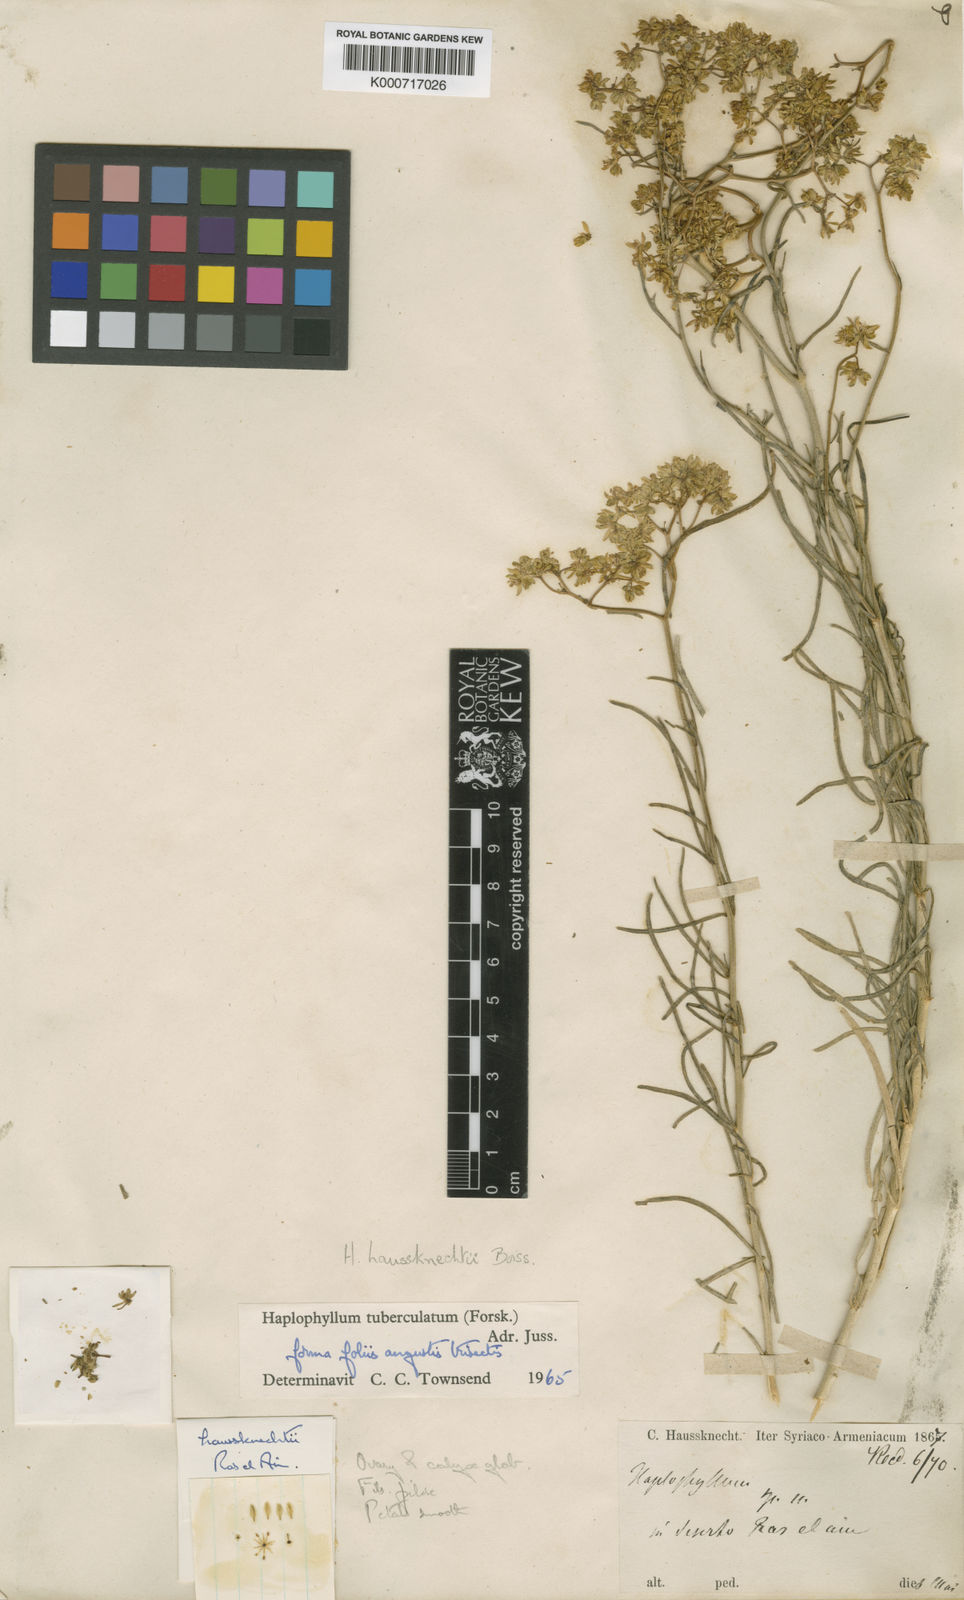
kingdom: Plantae
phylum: Tracheophyta
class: Magnoliopsida
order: Sapindales
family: Rutaceae
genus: Haplophyllum
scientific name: Haplophyllum tuberculatum
